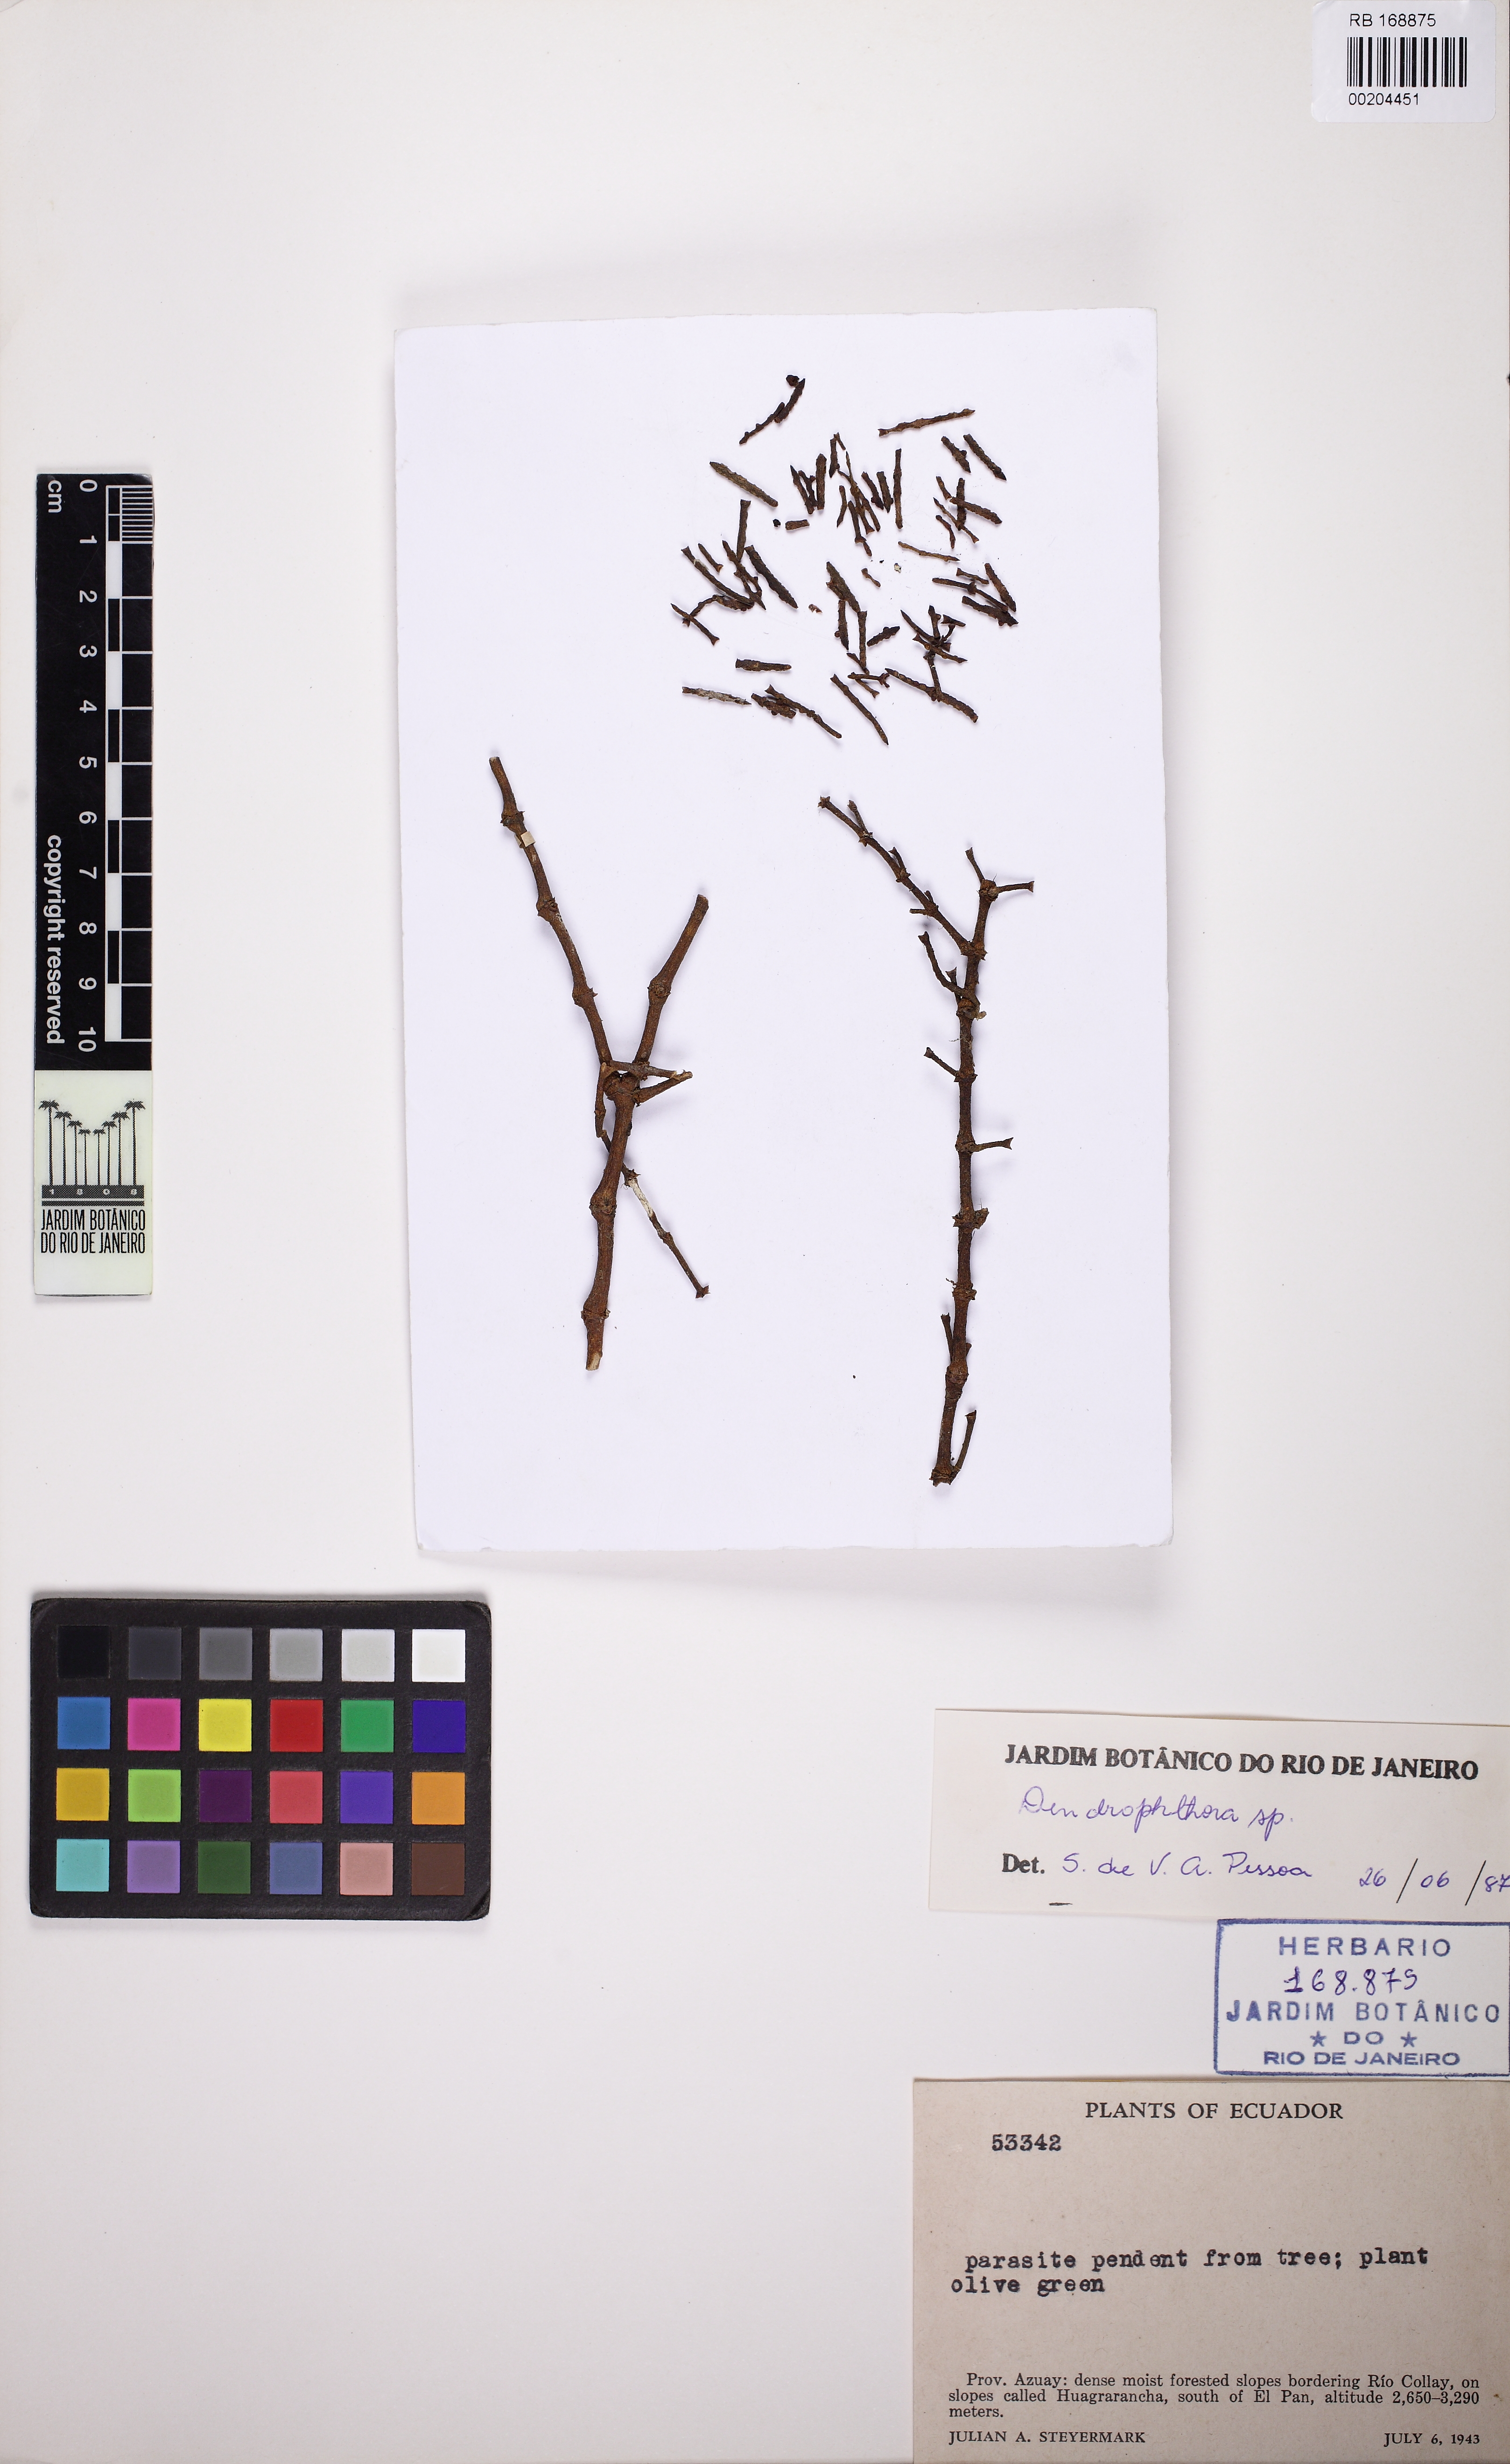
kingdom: Plantae
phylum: Tracheophyta
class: Magnoliopsida
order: Santalales
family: Viscaceae
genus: Dendrophthora
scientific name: Dendrophthora
